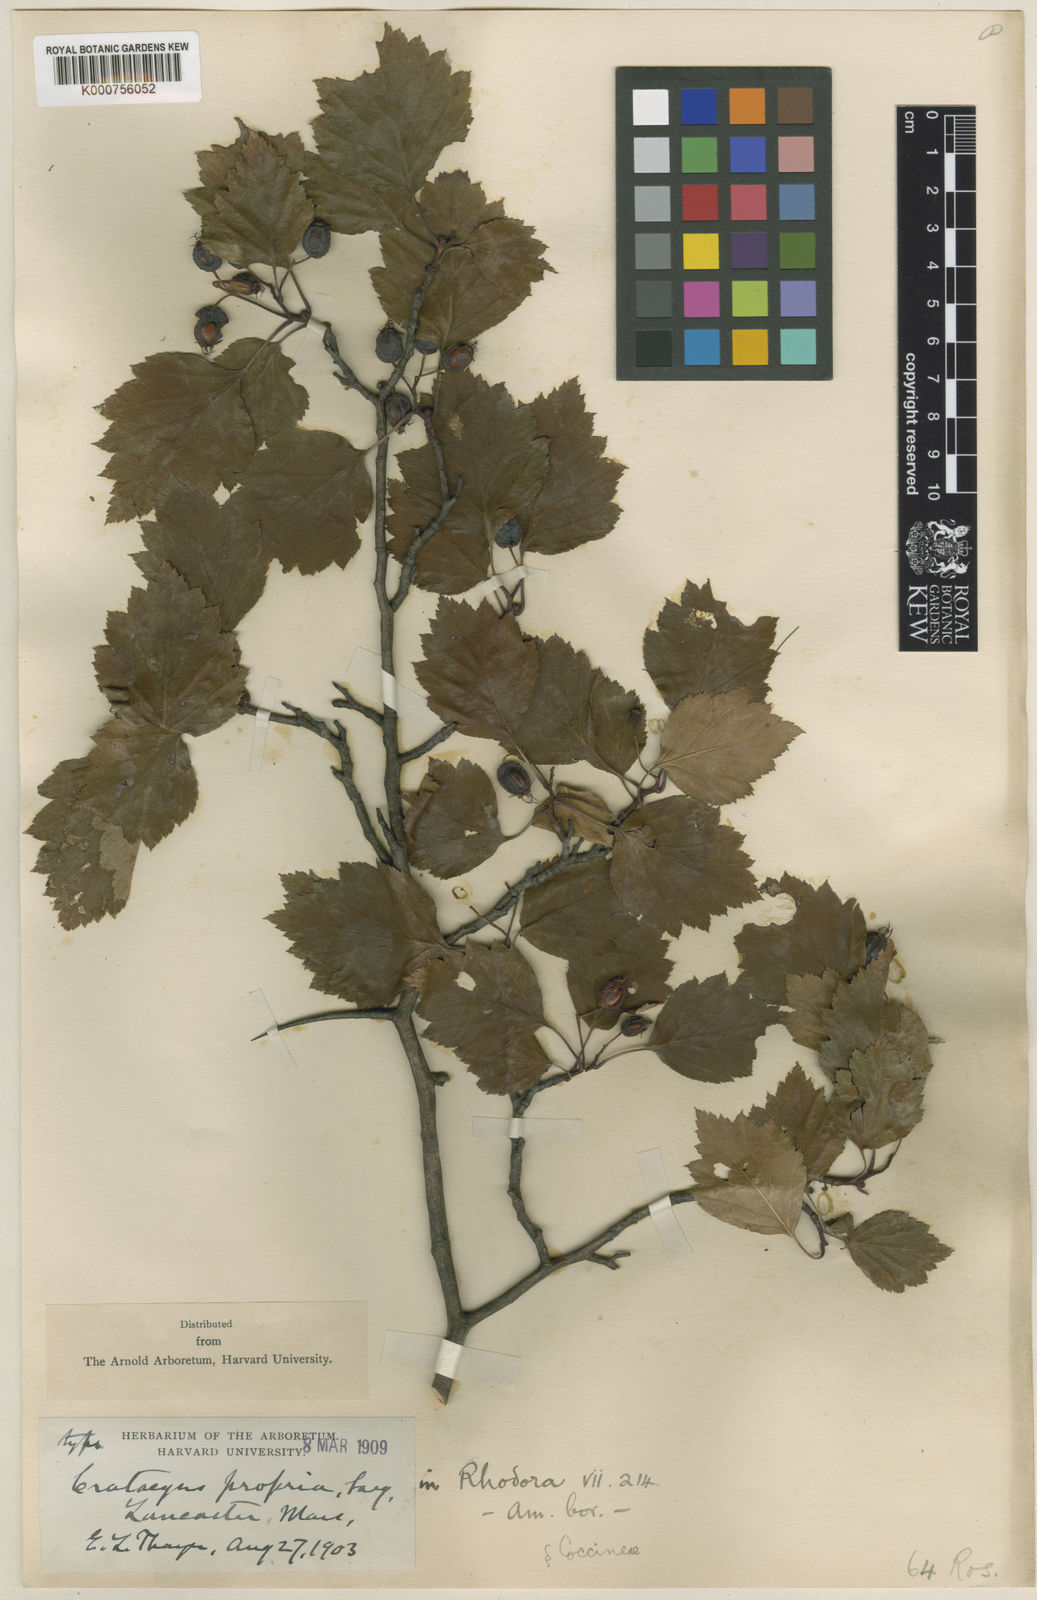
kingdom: Plantae
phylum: Tracheophyta
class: Magnoliopsida
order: Rosales
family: Rosaceae
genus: Crataegus
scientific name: Crataegus propria
